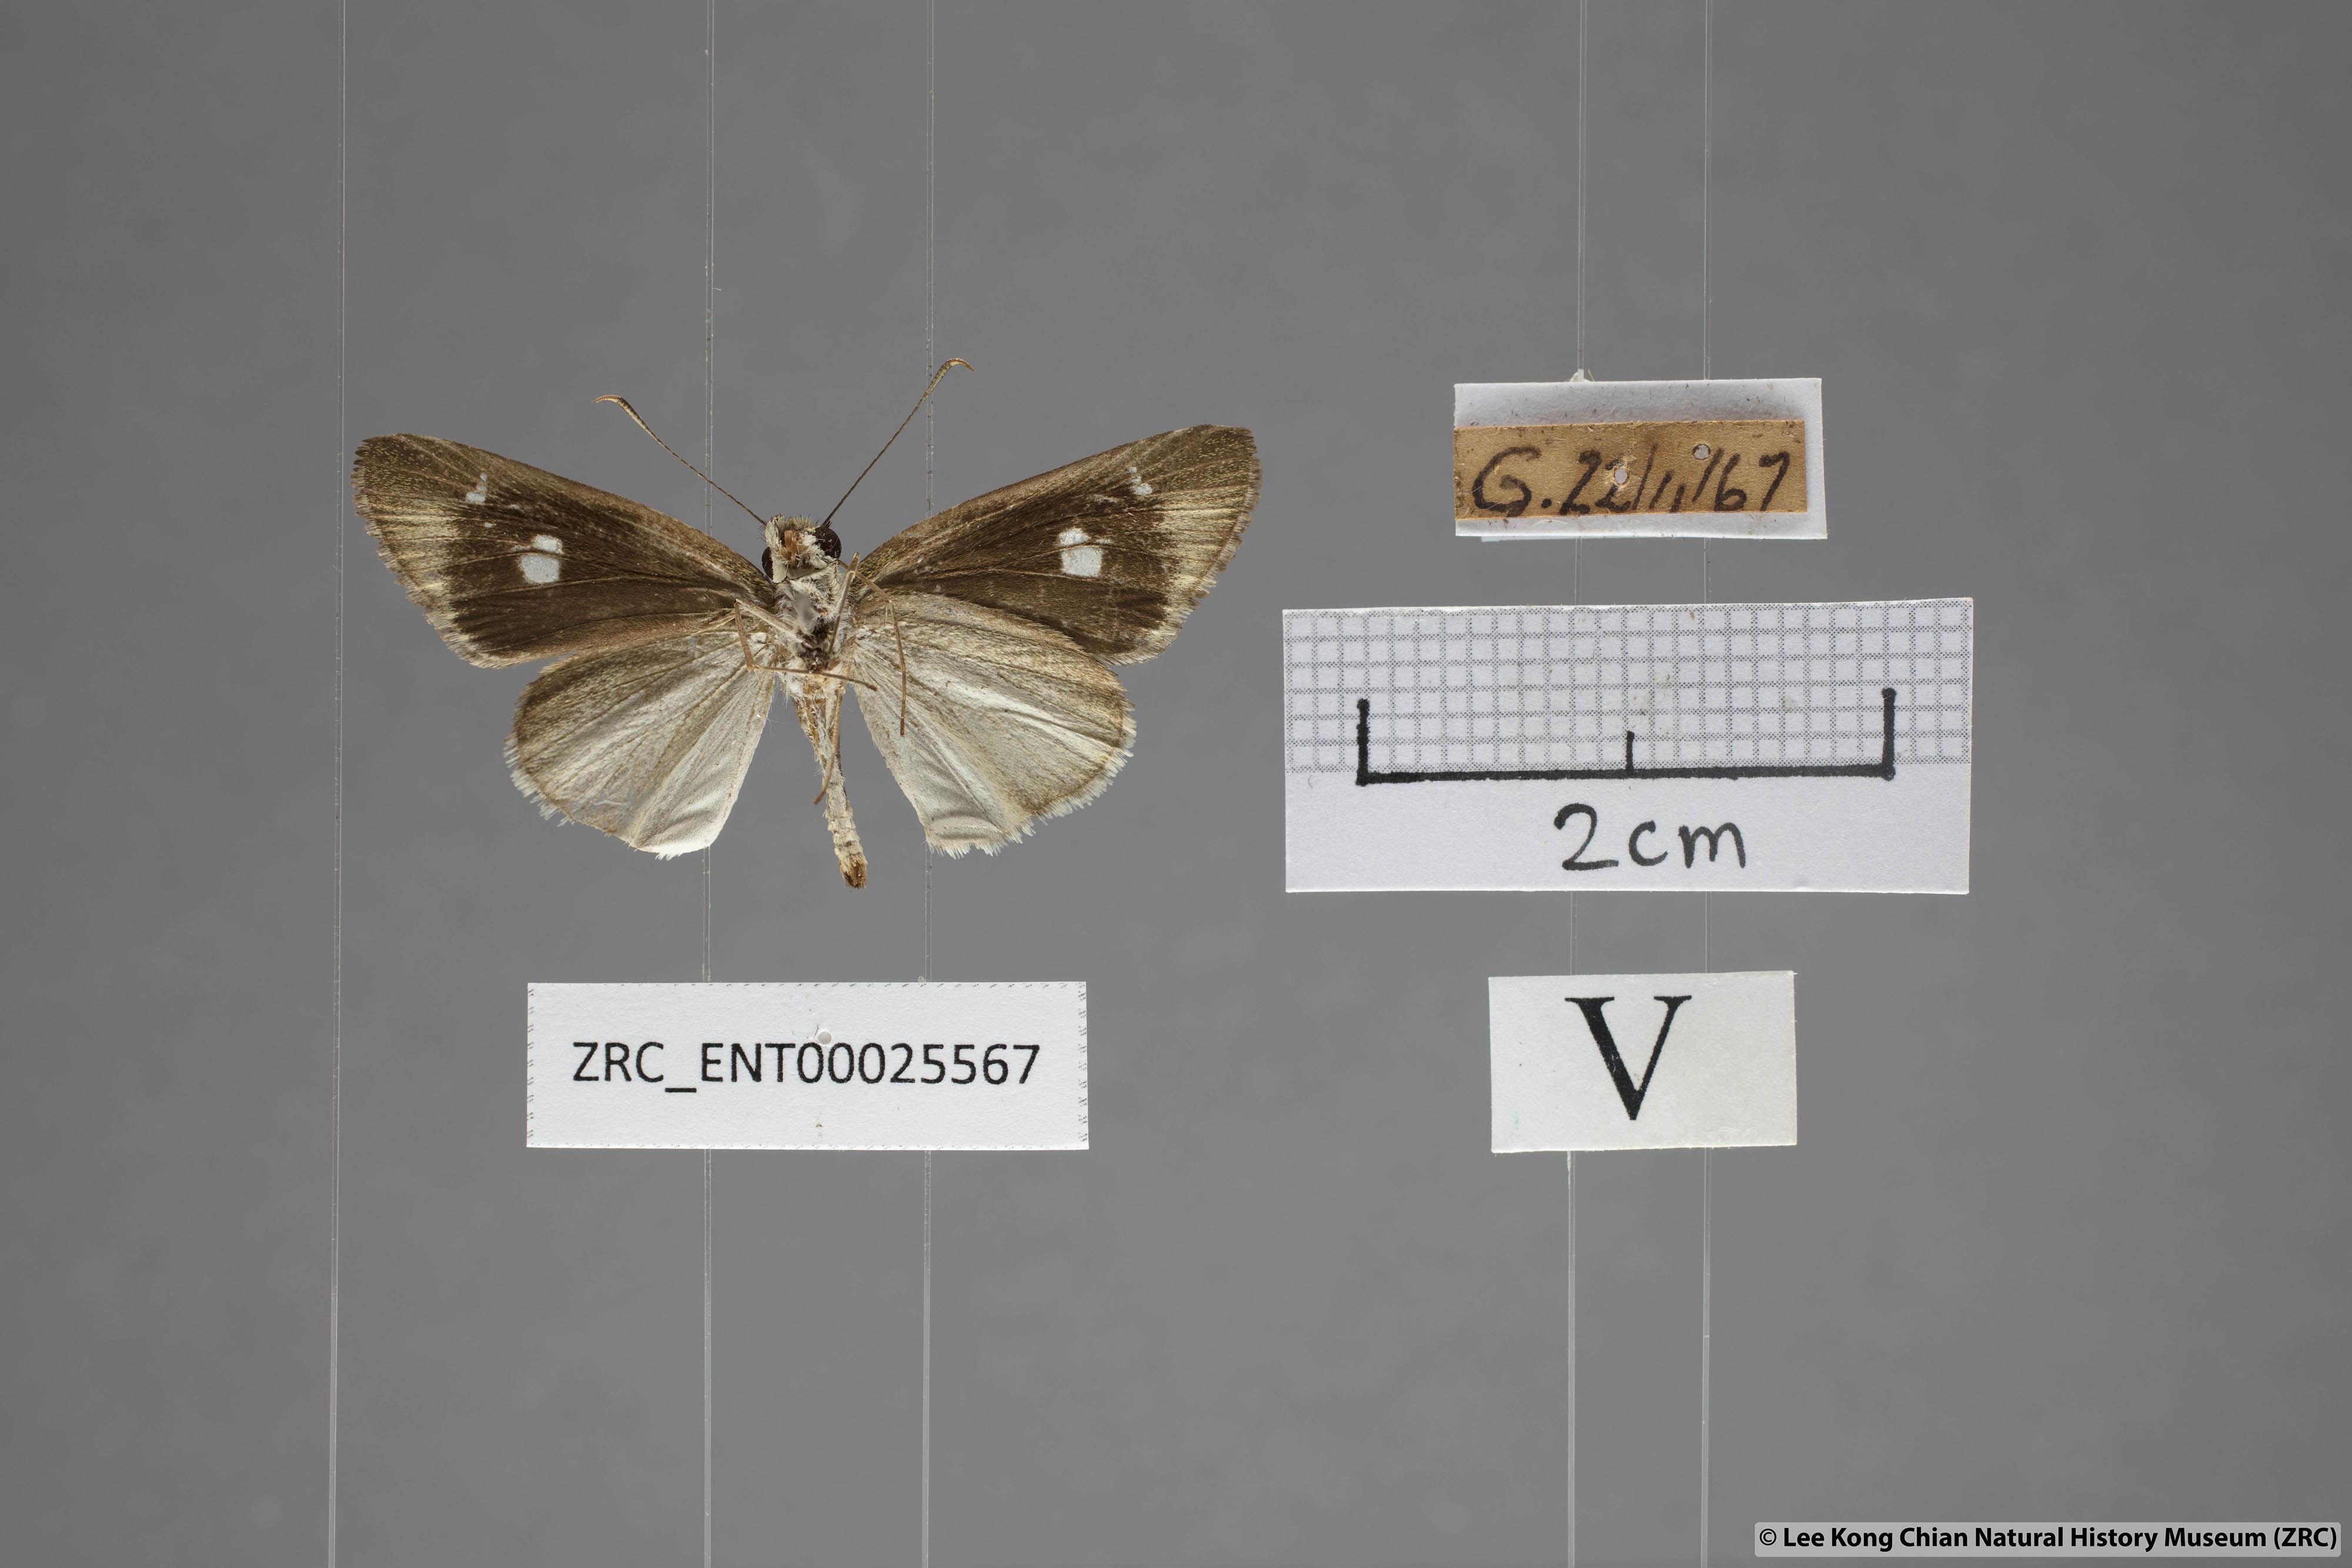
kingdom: Animalia
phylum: Arthropoda
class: Insecta
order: Lepidoptera
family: Hesperiidae
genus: Suada
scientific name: Suada swerga
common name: Grass bob
